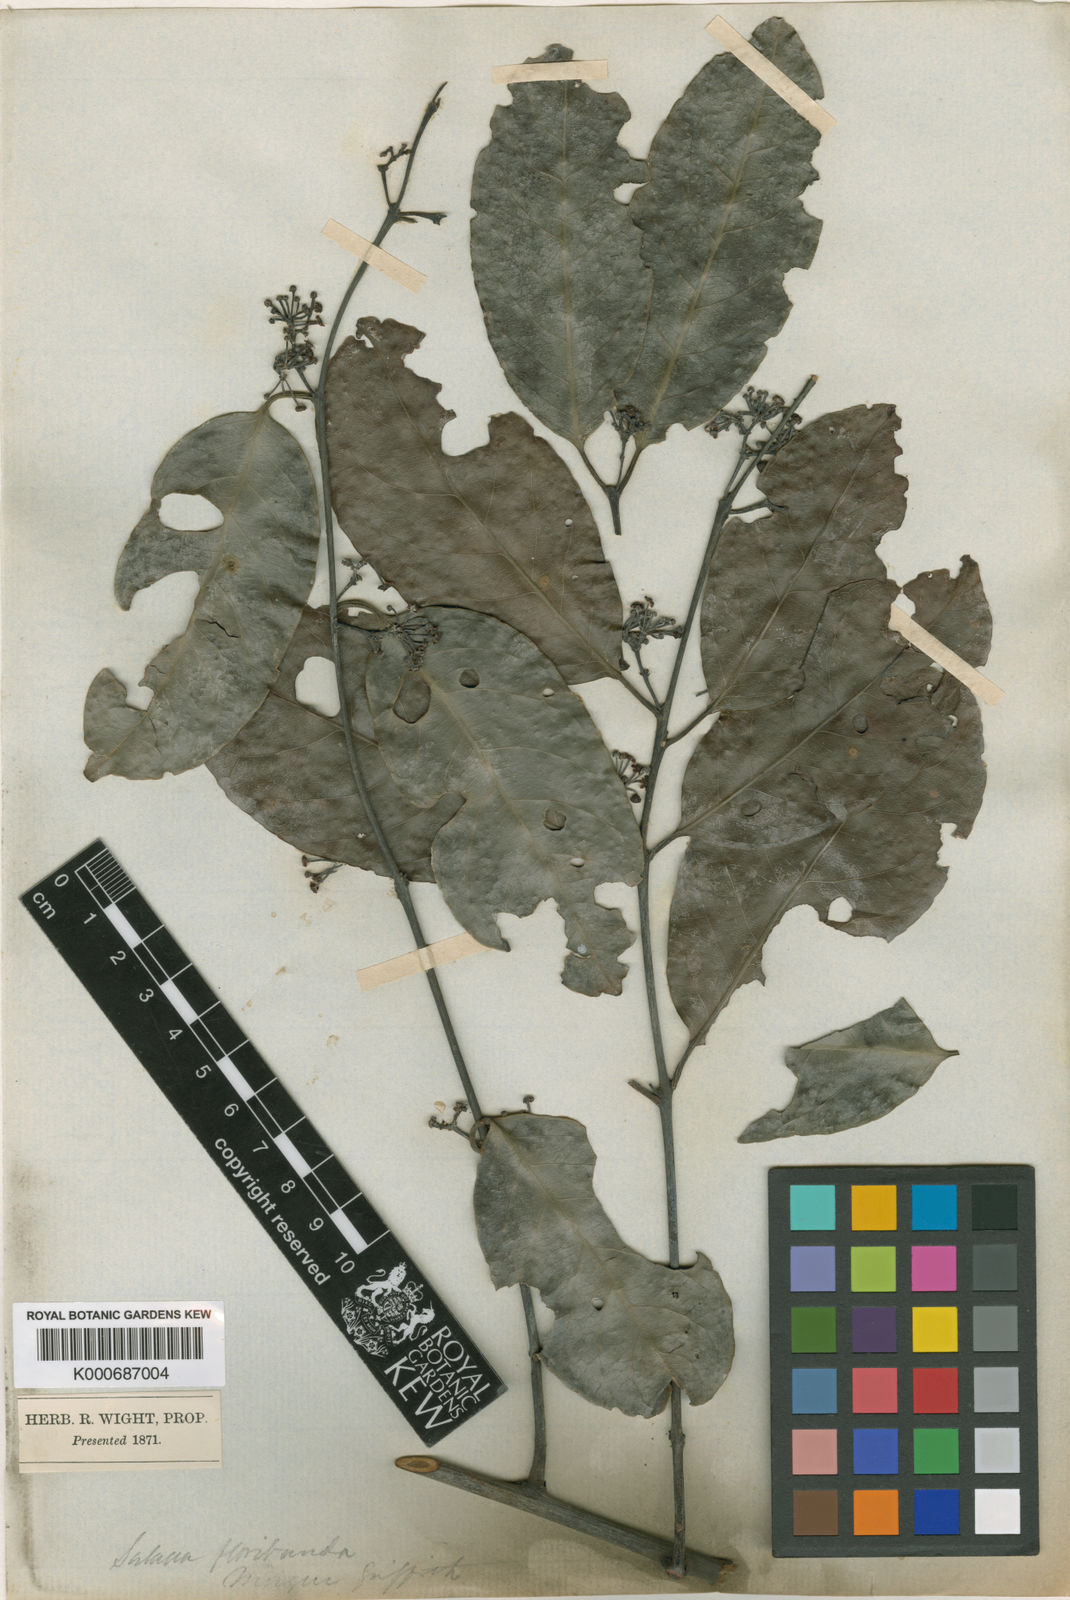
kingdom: Plantae
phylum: Tracheophyta
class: Magnoliopsida
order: Celastrales
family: Celastraceae
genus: Salacia
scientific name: Salacia floribunda
